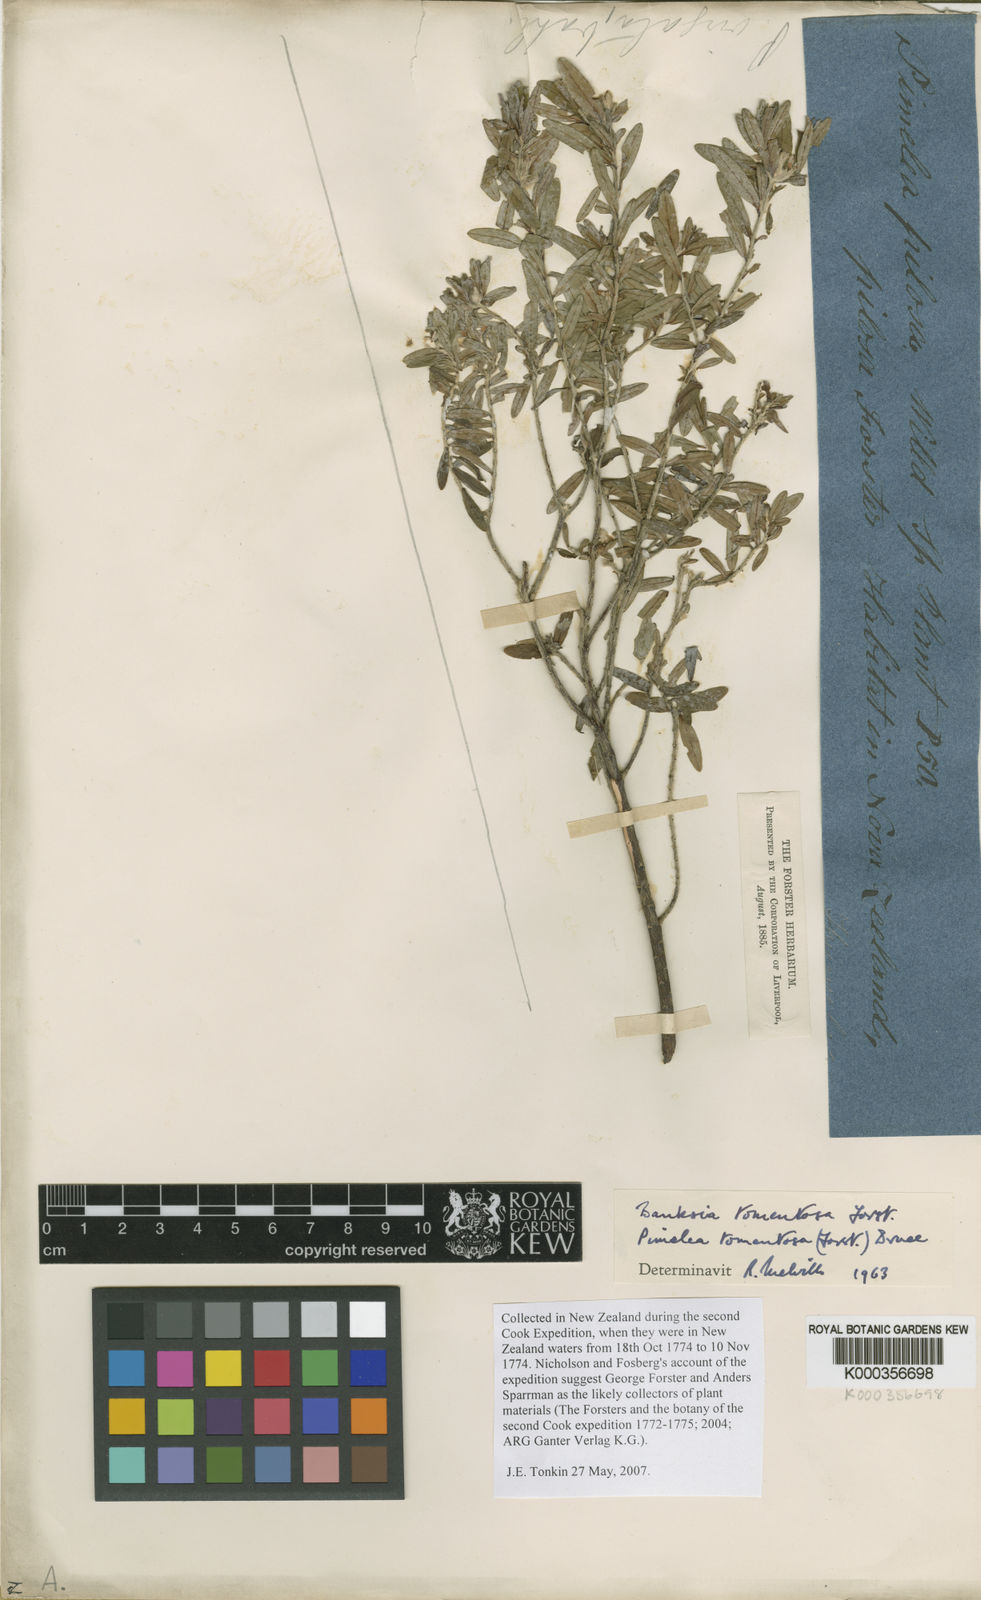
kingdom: Plantae
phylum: Tracheophyta
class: Magnoliopsida
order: Malvales
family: Thymelaeaceae
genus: Pimelea
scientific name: Pimelea tomentosa
